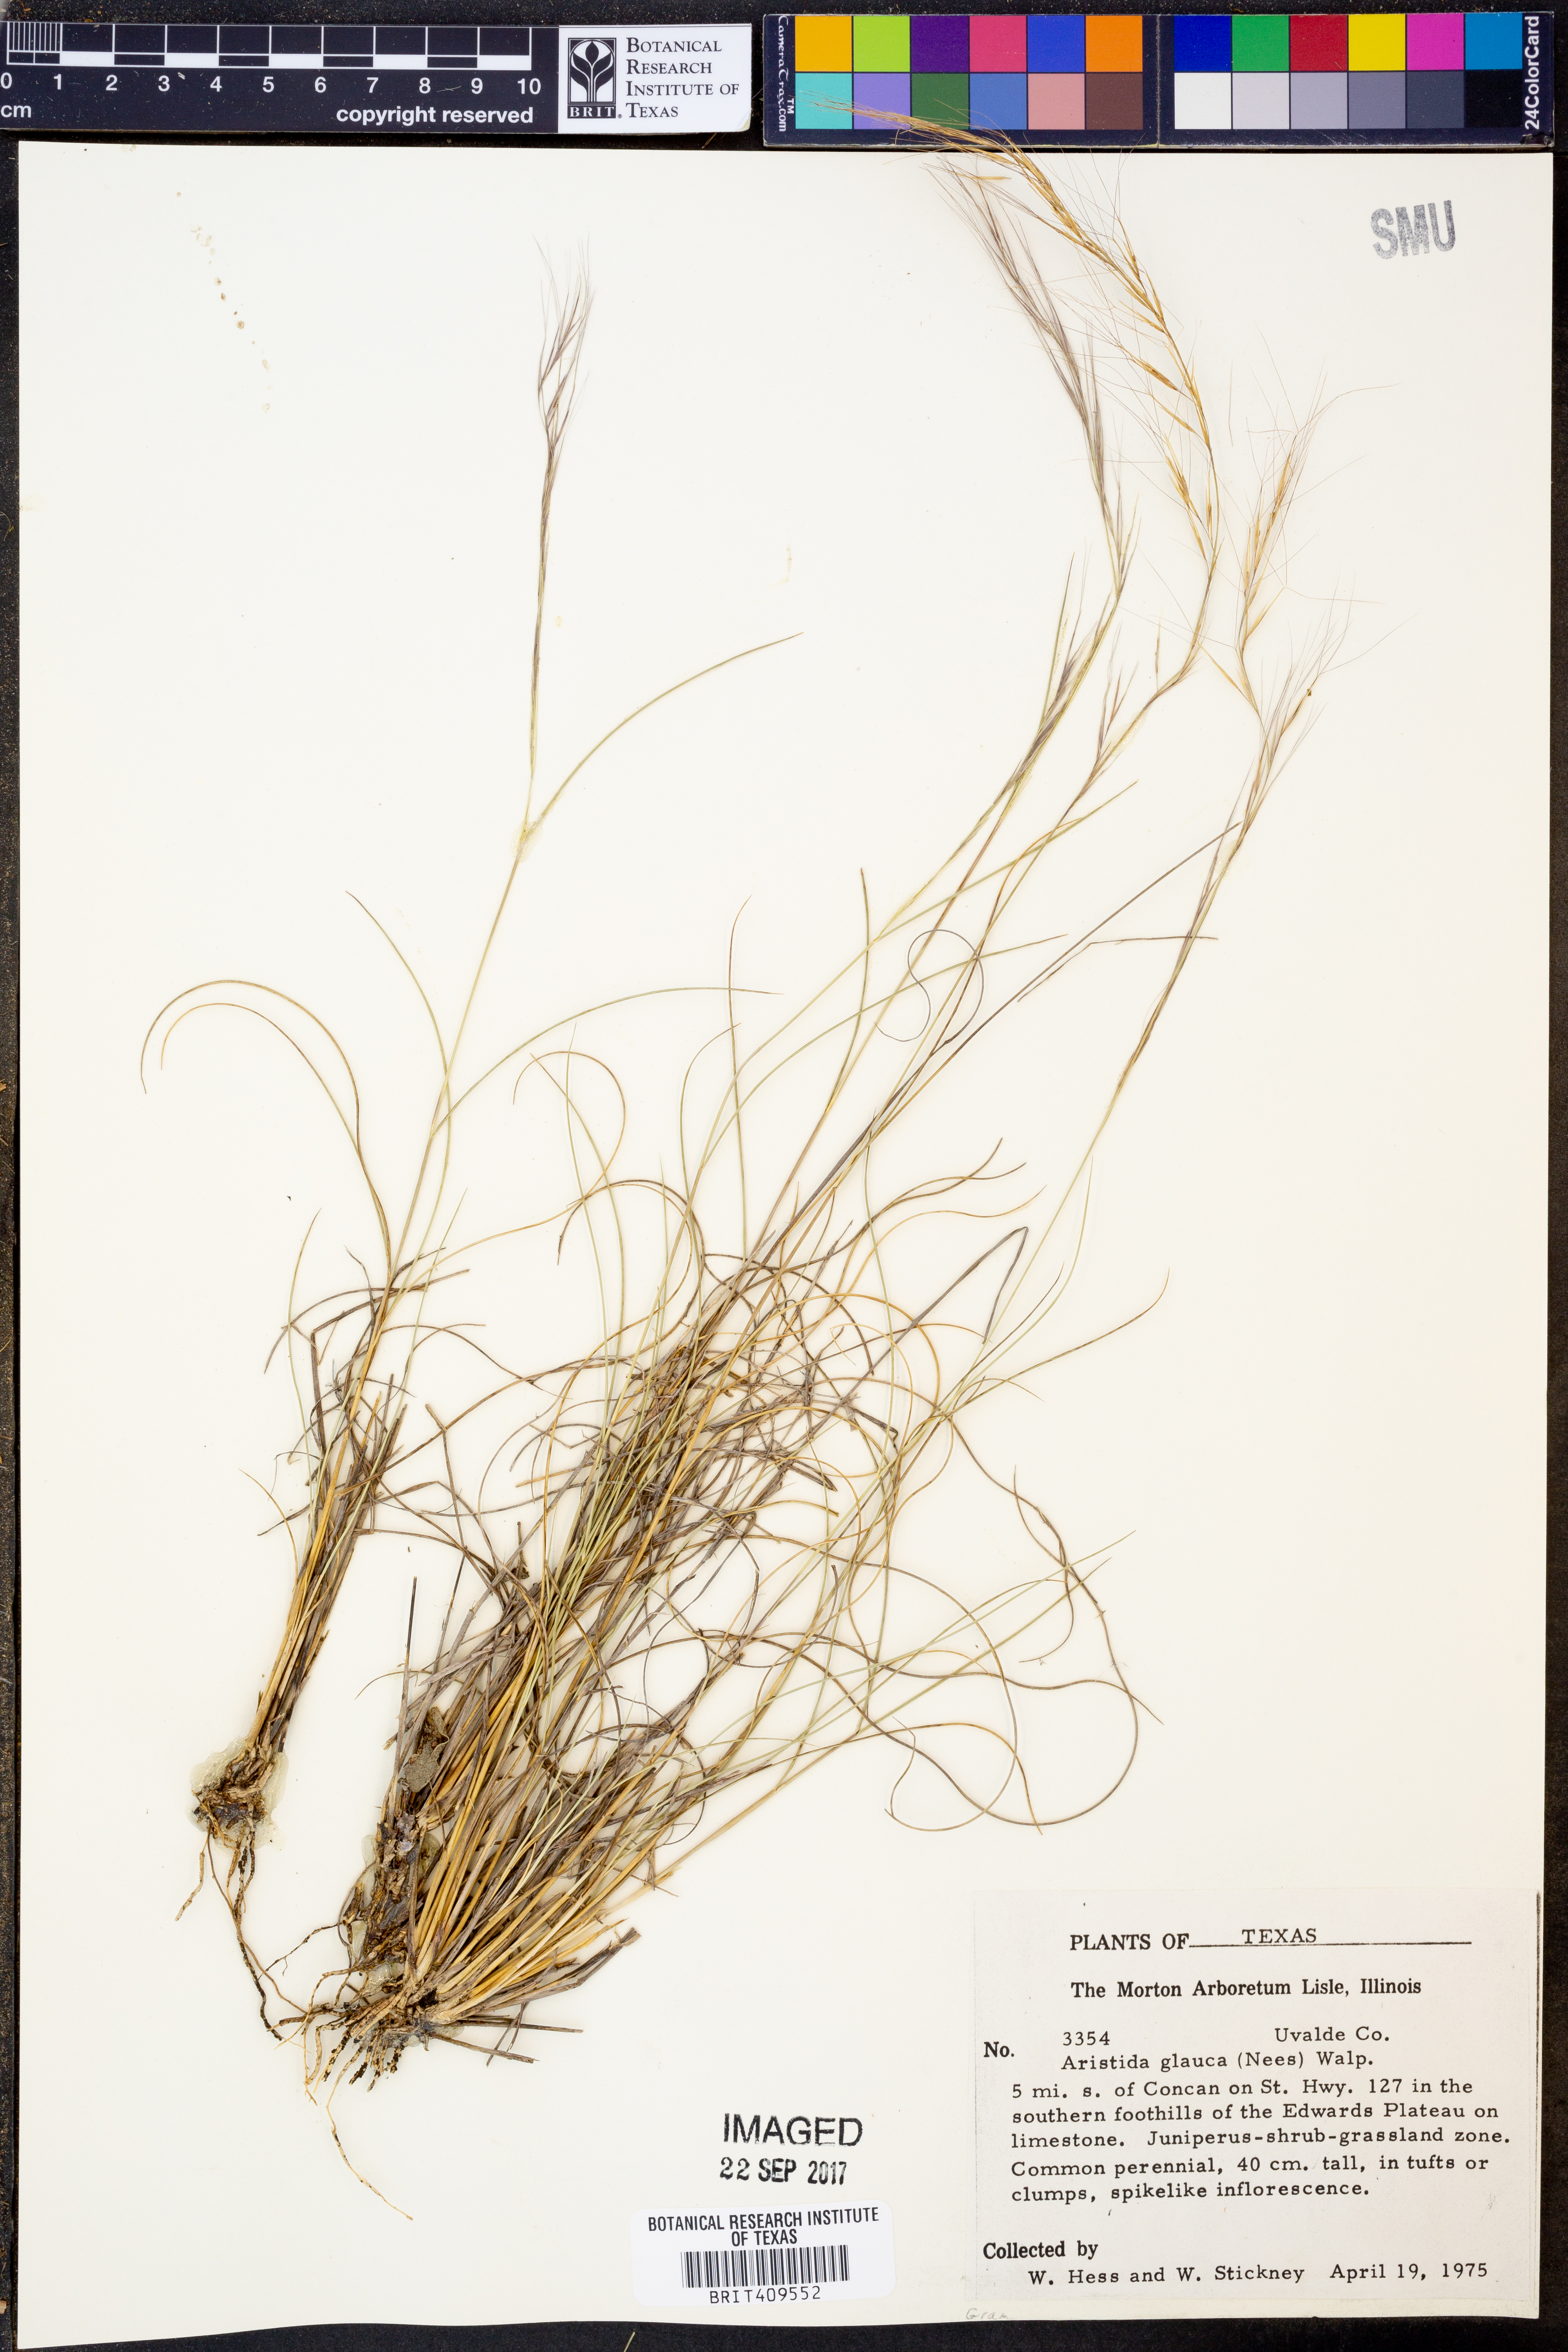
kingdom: Plantae
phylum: Tracheophyta
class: Liliopsida
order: Poales
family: Poaceae
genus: Aristida
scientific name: Aristida glauca
